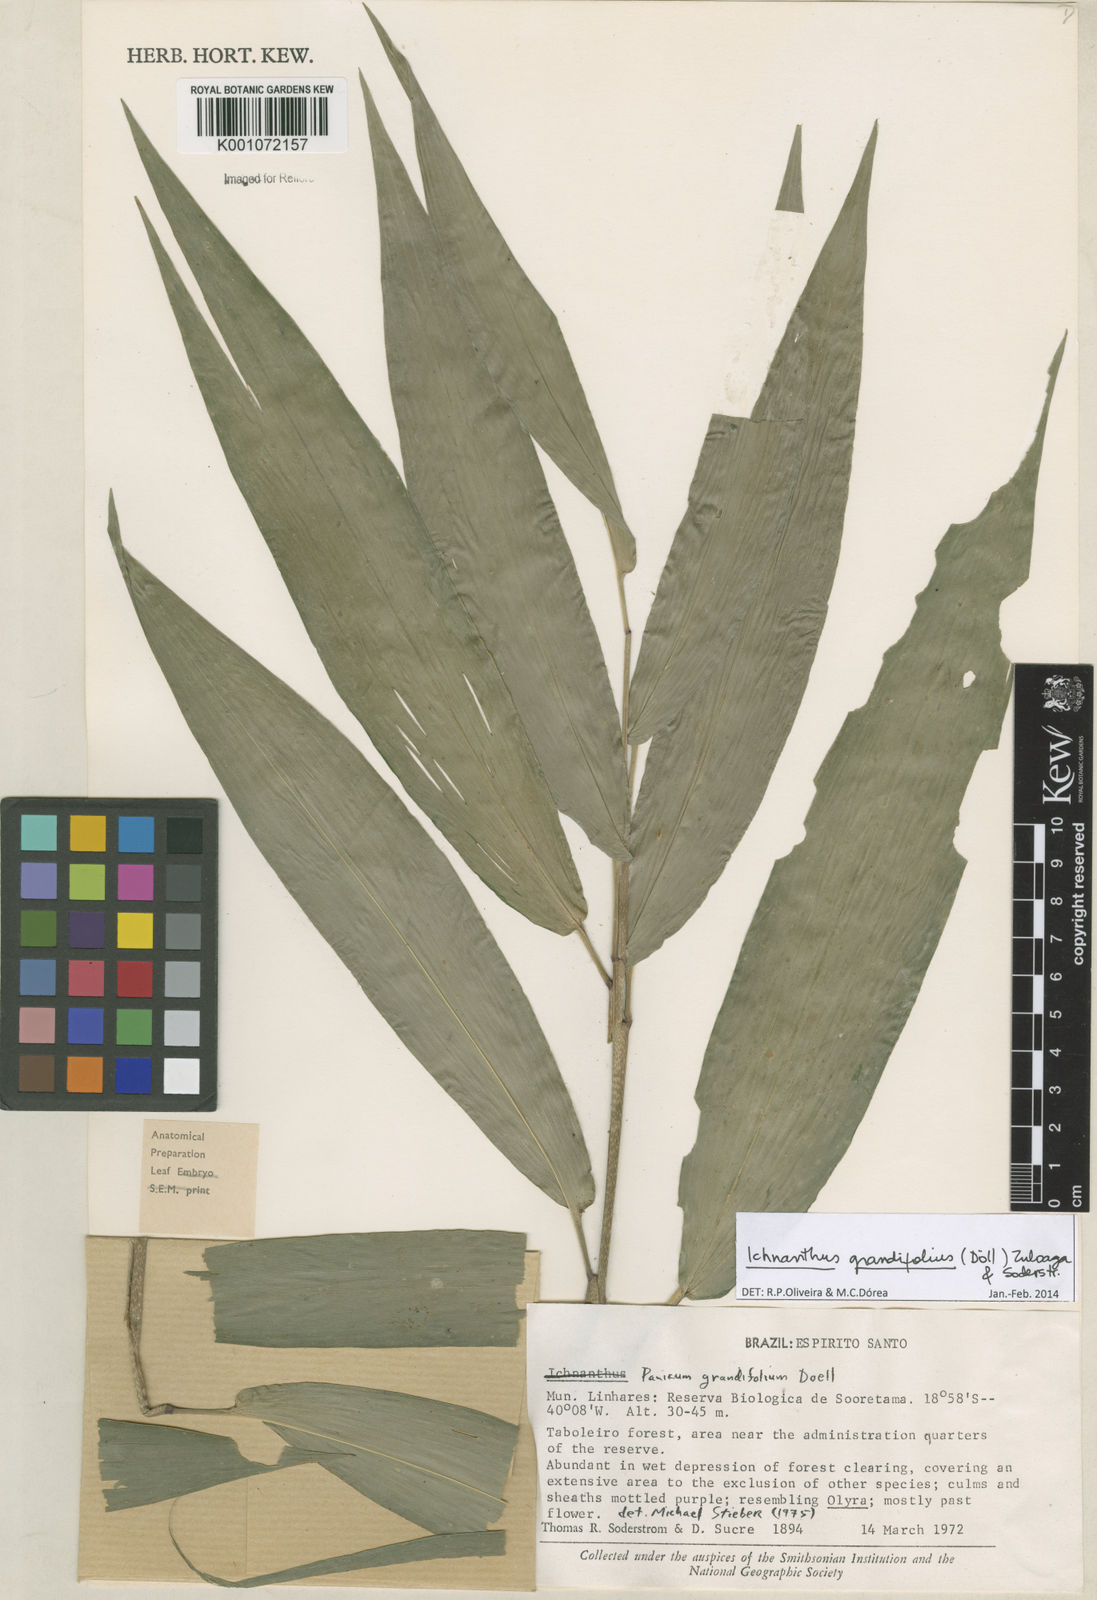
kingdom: Plantae
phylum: Tracheophyta
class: Liliopsida
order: Poales
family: Poaceae
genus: Ichnanthus
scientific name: Ichnanthus
